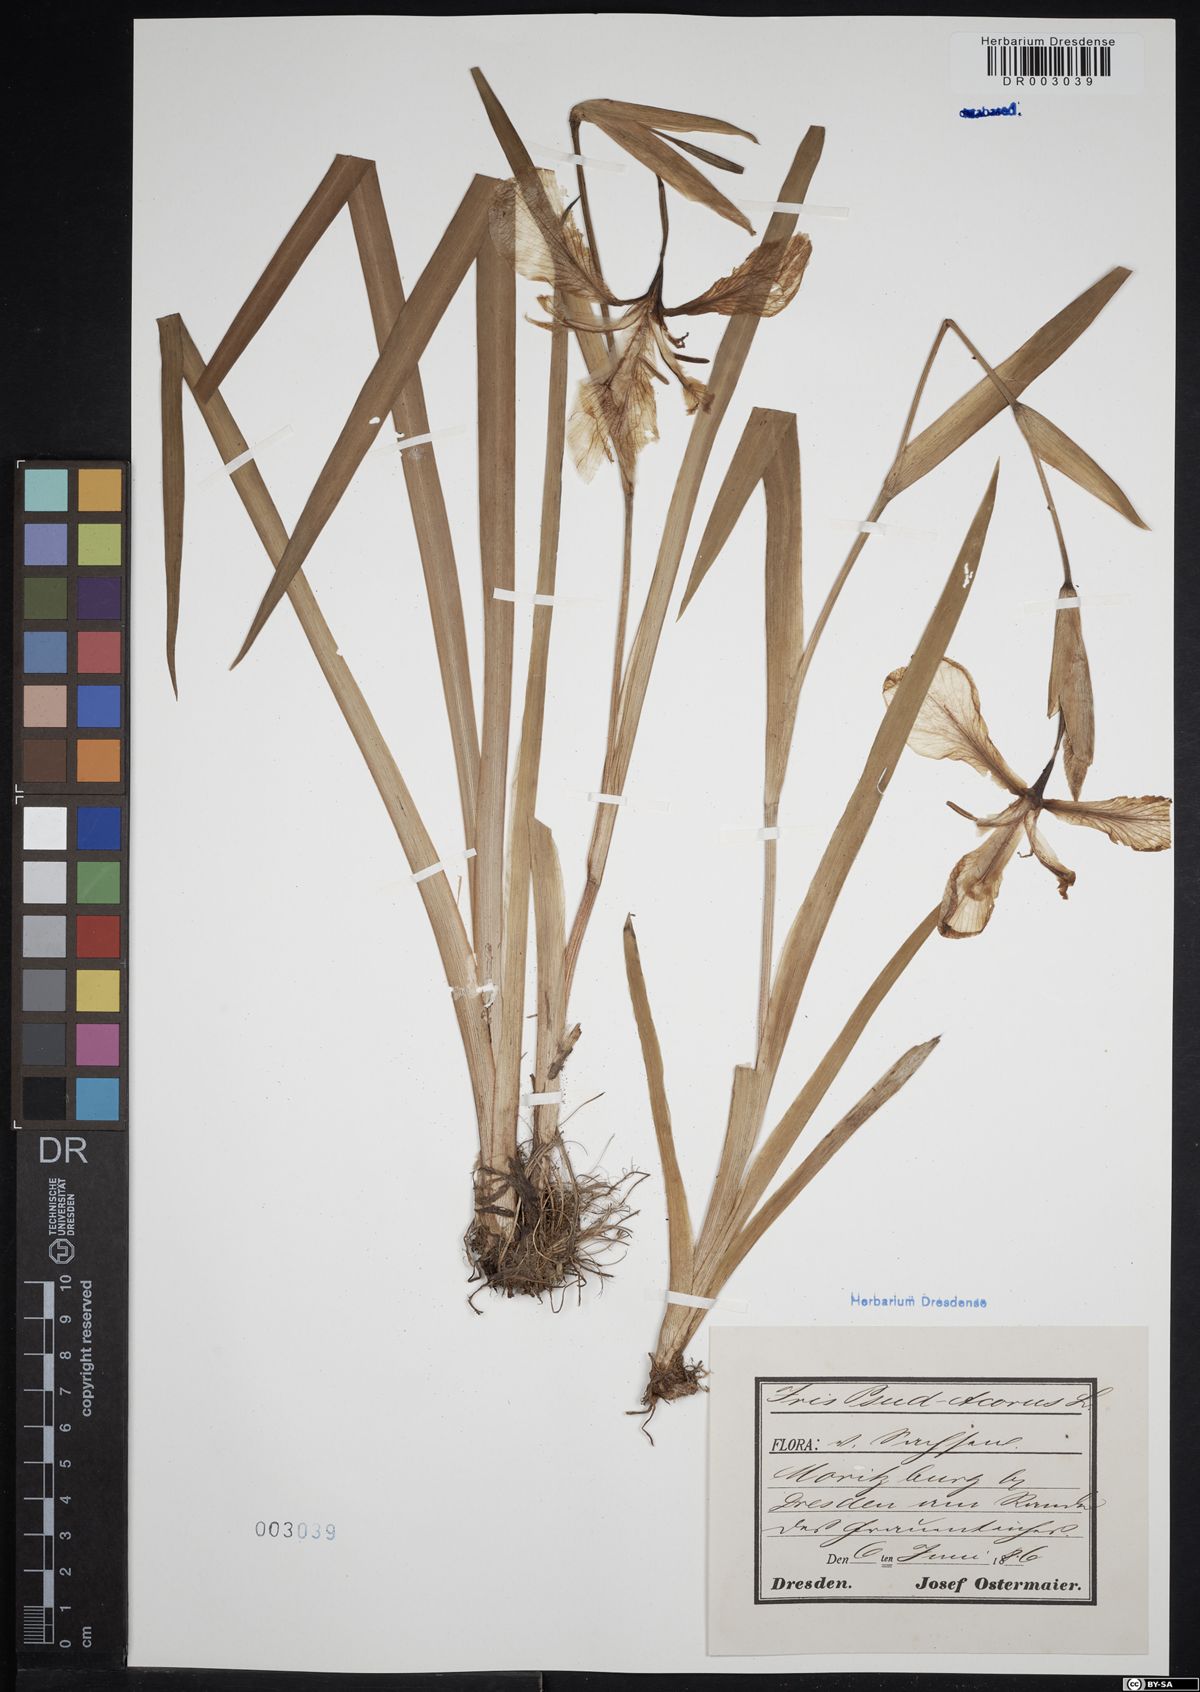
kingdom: Plantae
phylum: Tracheophyta
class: Liliopsida
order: Asparagales
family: Iridaceae
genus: Iris
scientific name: Iris pseudacorus
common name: Yellow flag
